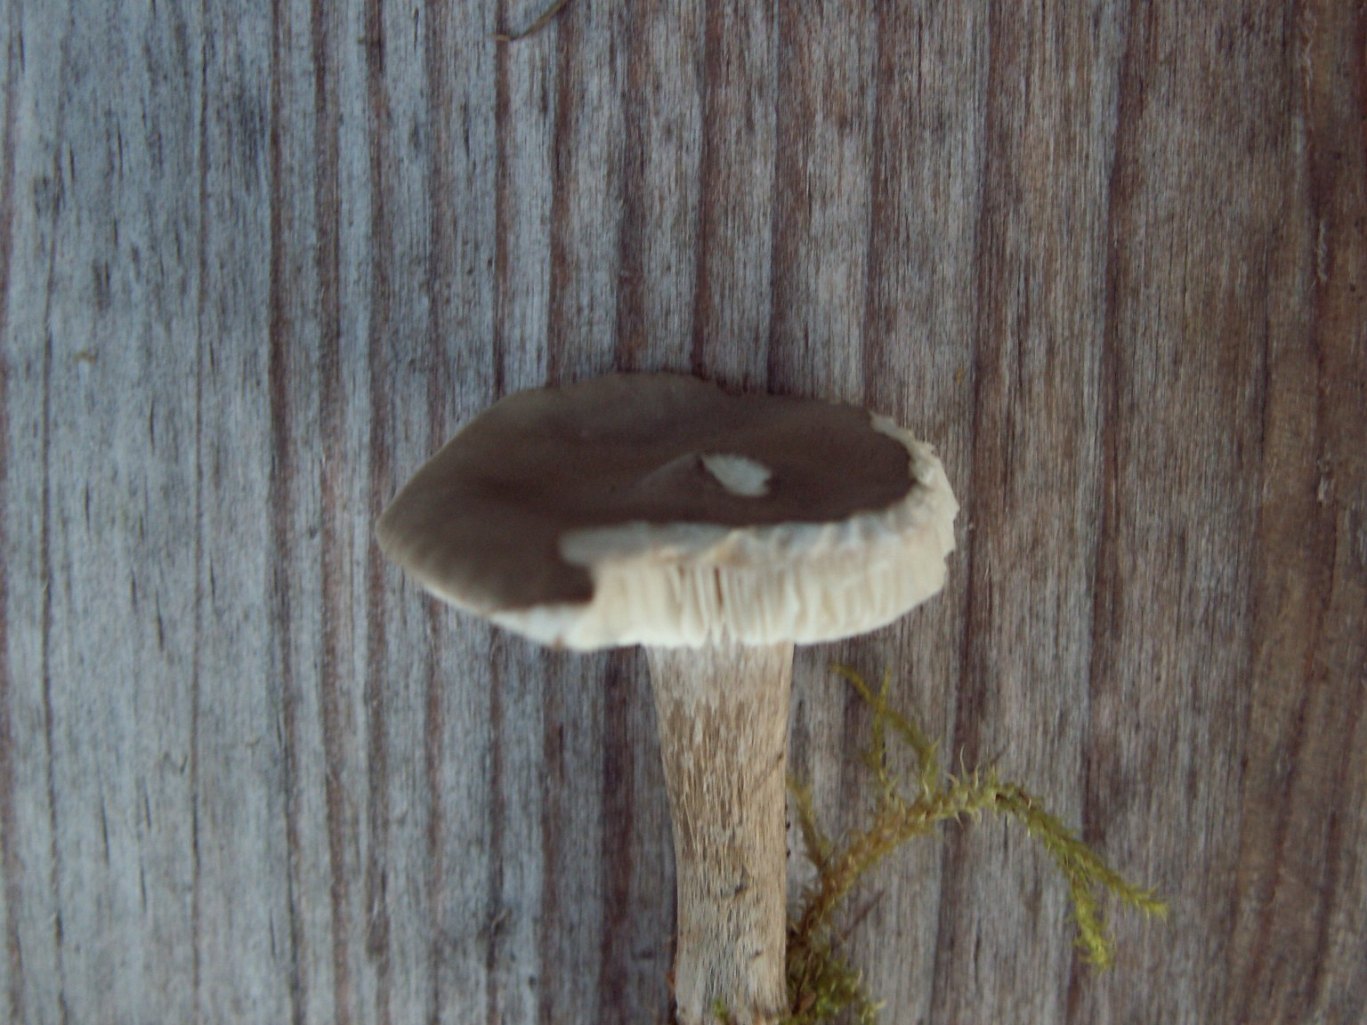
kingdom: Fungi
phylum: Basidiomycota
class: Agaricomycetes
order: Agaricales
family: Tricholomataceae
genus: Melanoleuca
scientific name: Melanoleuca exscissa
